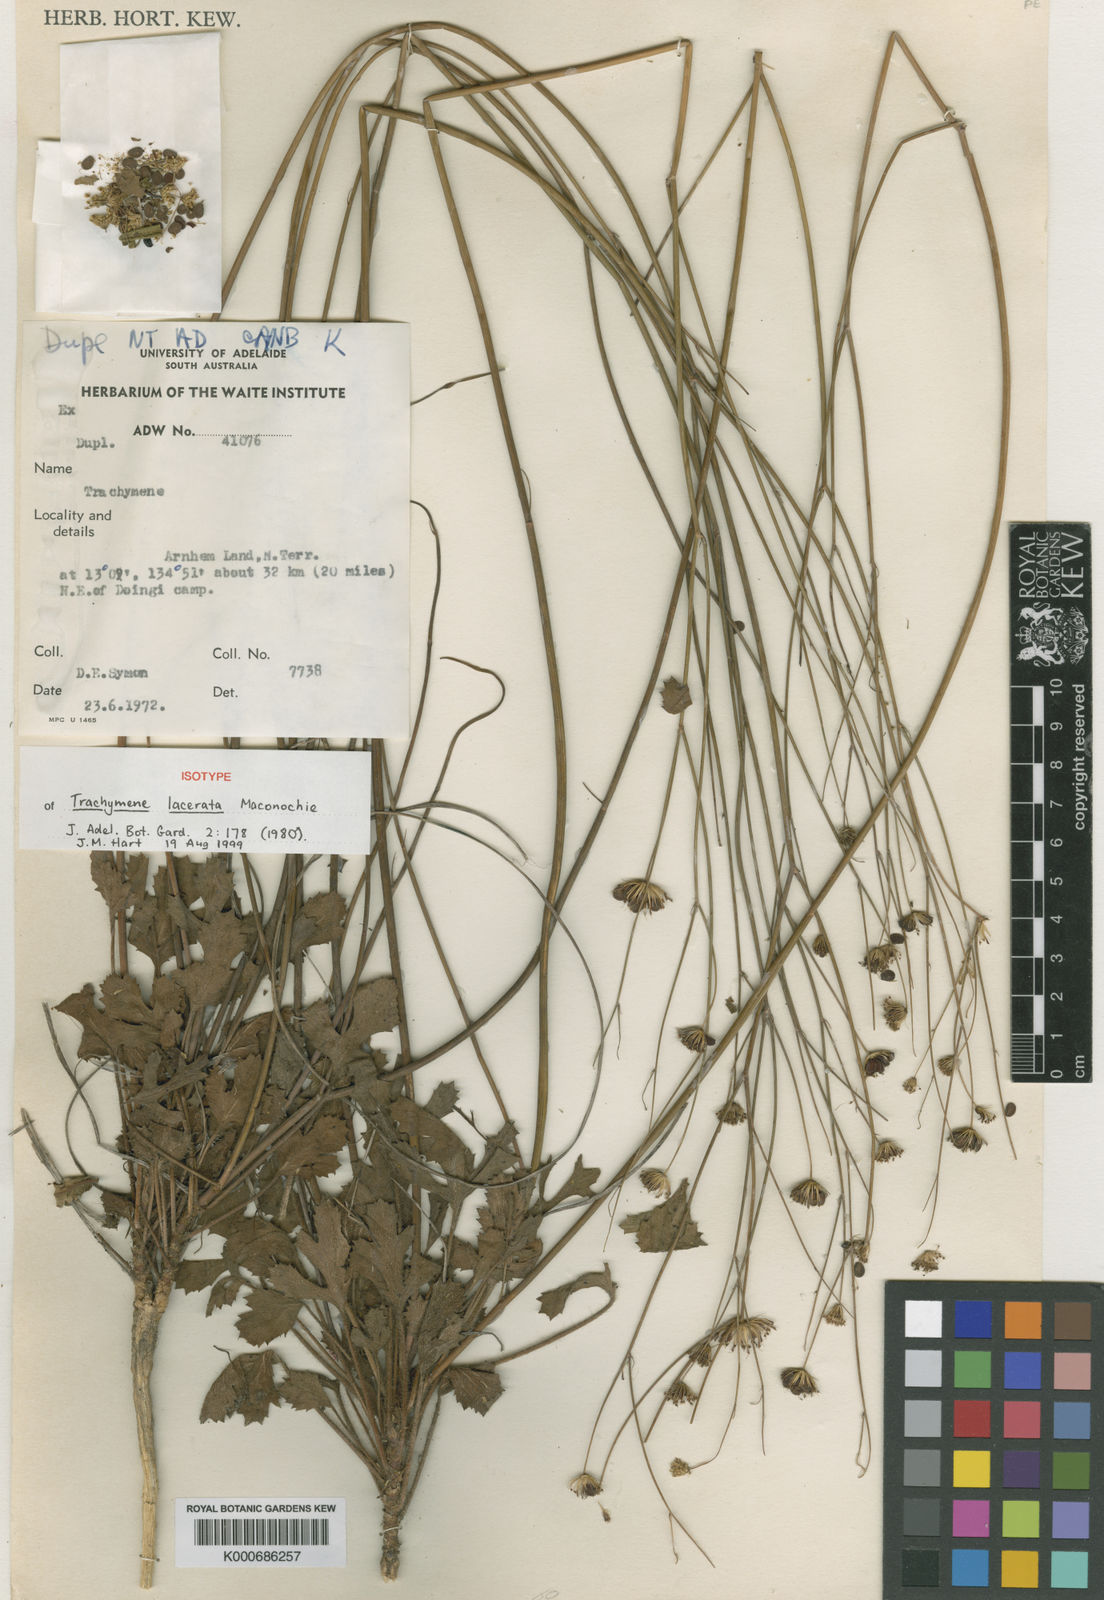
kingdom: Plantae
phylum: Tracheophyta
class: Magnoliopsida
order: Apiales
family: Araliaceae
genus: Trachymene
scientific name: Trachymene microcephala
